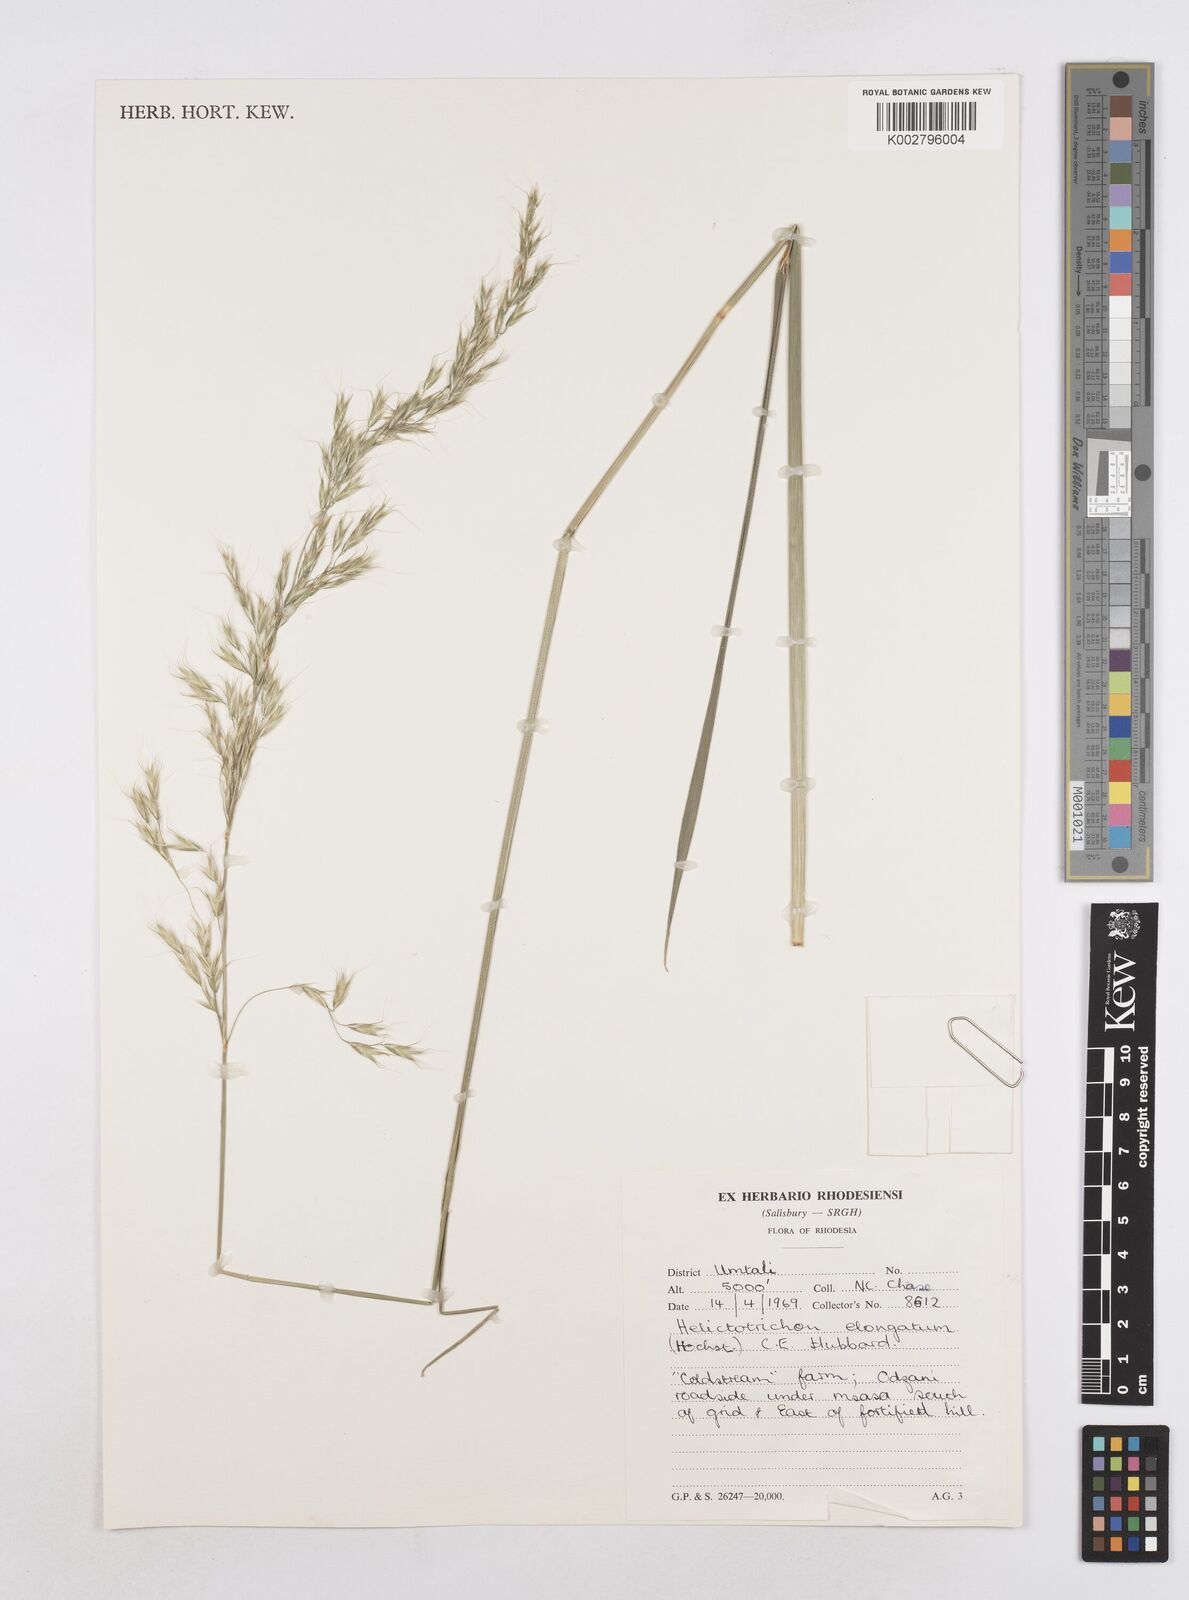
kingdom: Plantae
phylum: Tracheophyta
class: Liliopsida
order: Poales
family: Poaceae
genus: Trisetopsis
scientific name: Trisetopsis elongata
